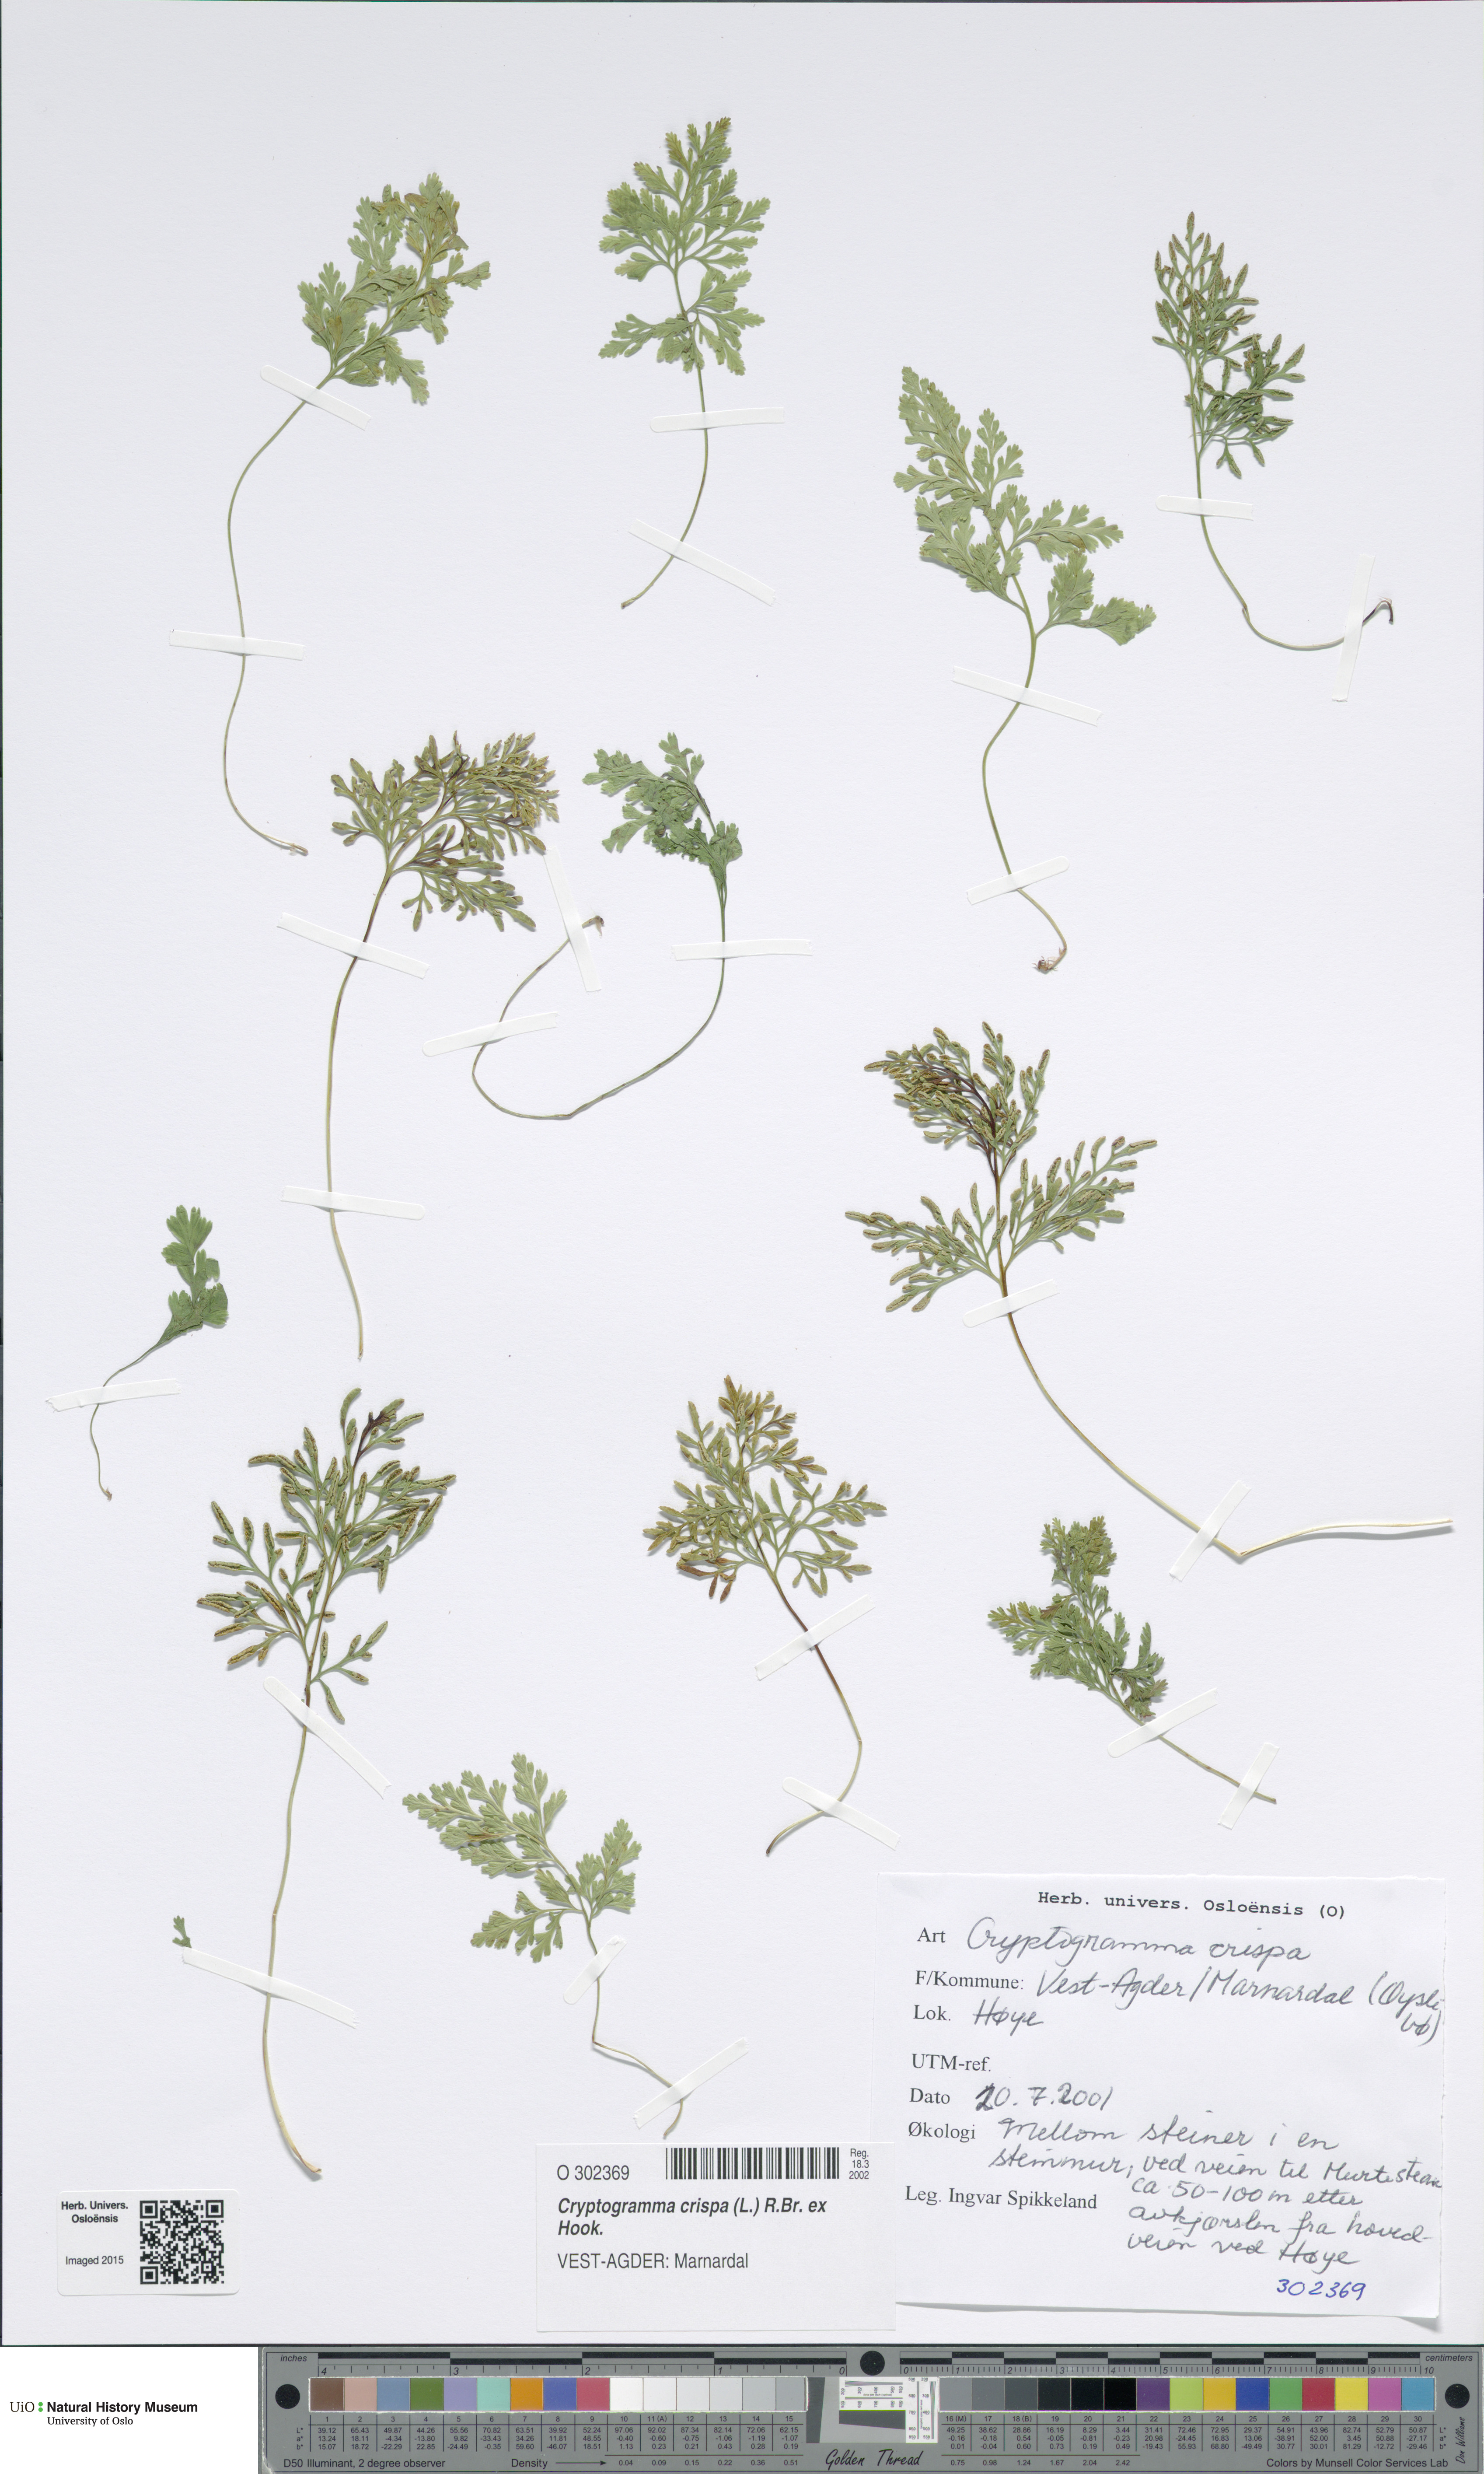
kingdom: Plantae
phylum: Tracheophyta
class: Polypodiopsida
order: Polypodiales
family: Pteridaceae
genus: Cryptogramma
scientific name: Cryptogramma crispa
